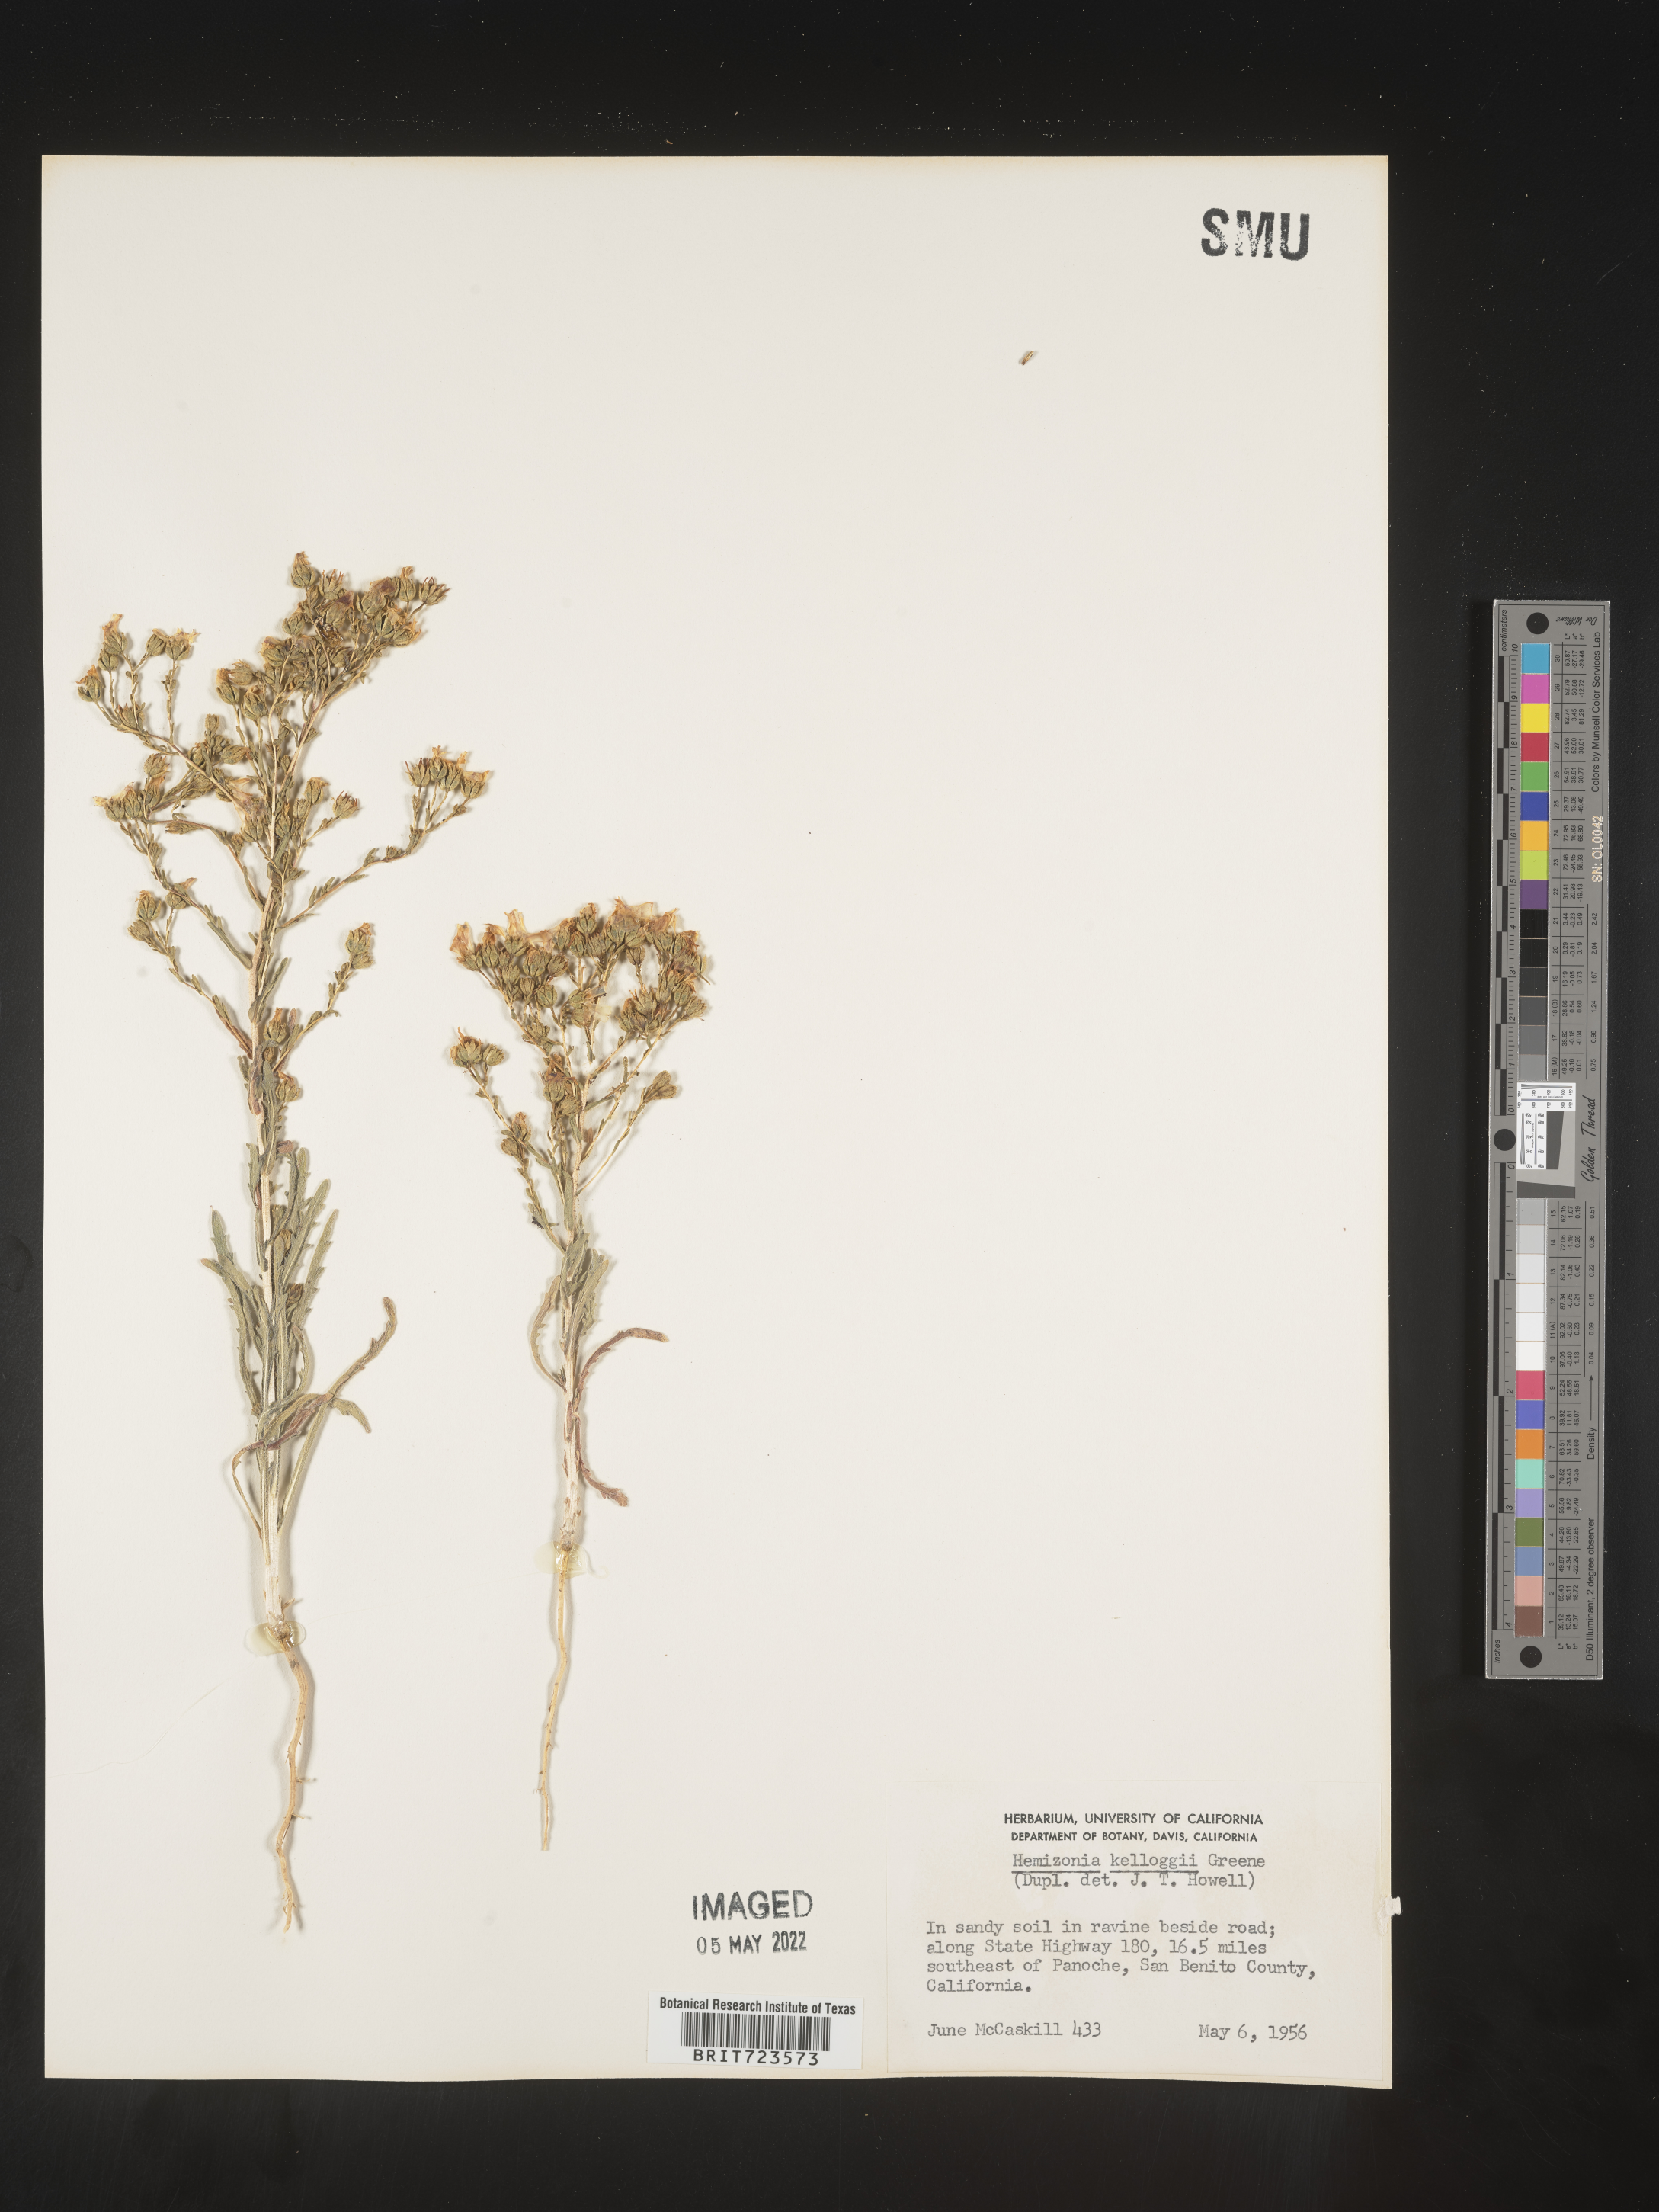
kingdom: Plantae
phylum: Tracheophyta
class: Magnoliopsida
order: Asterales
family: Asteraceae
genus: Hemizonia
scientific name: Hemizonia
